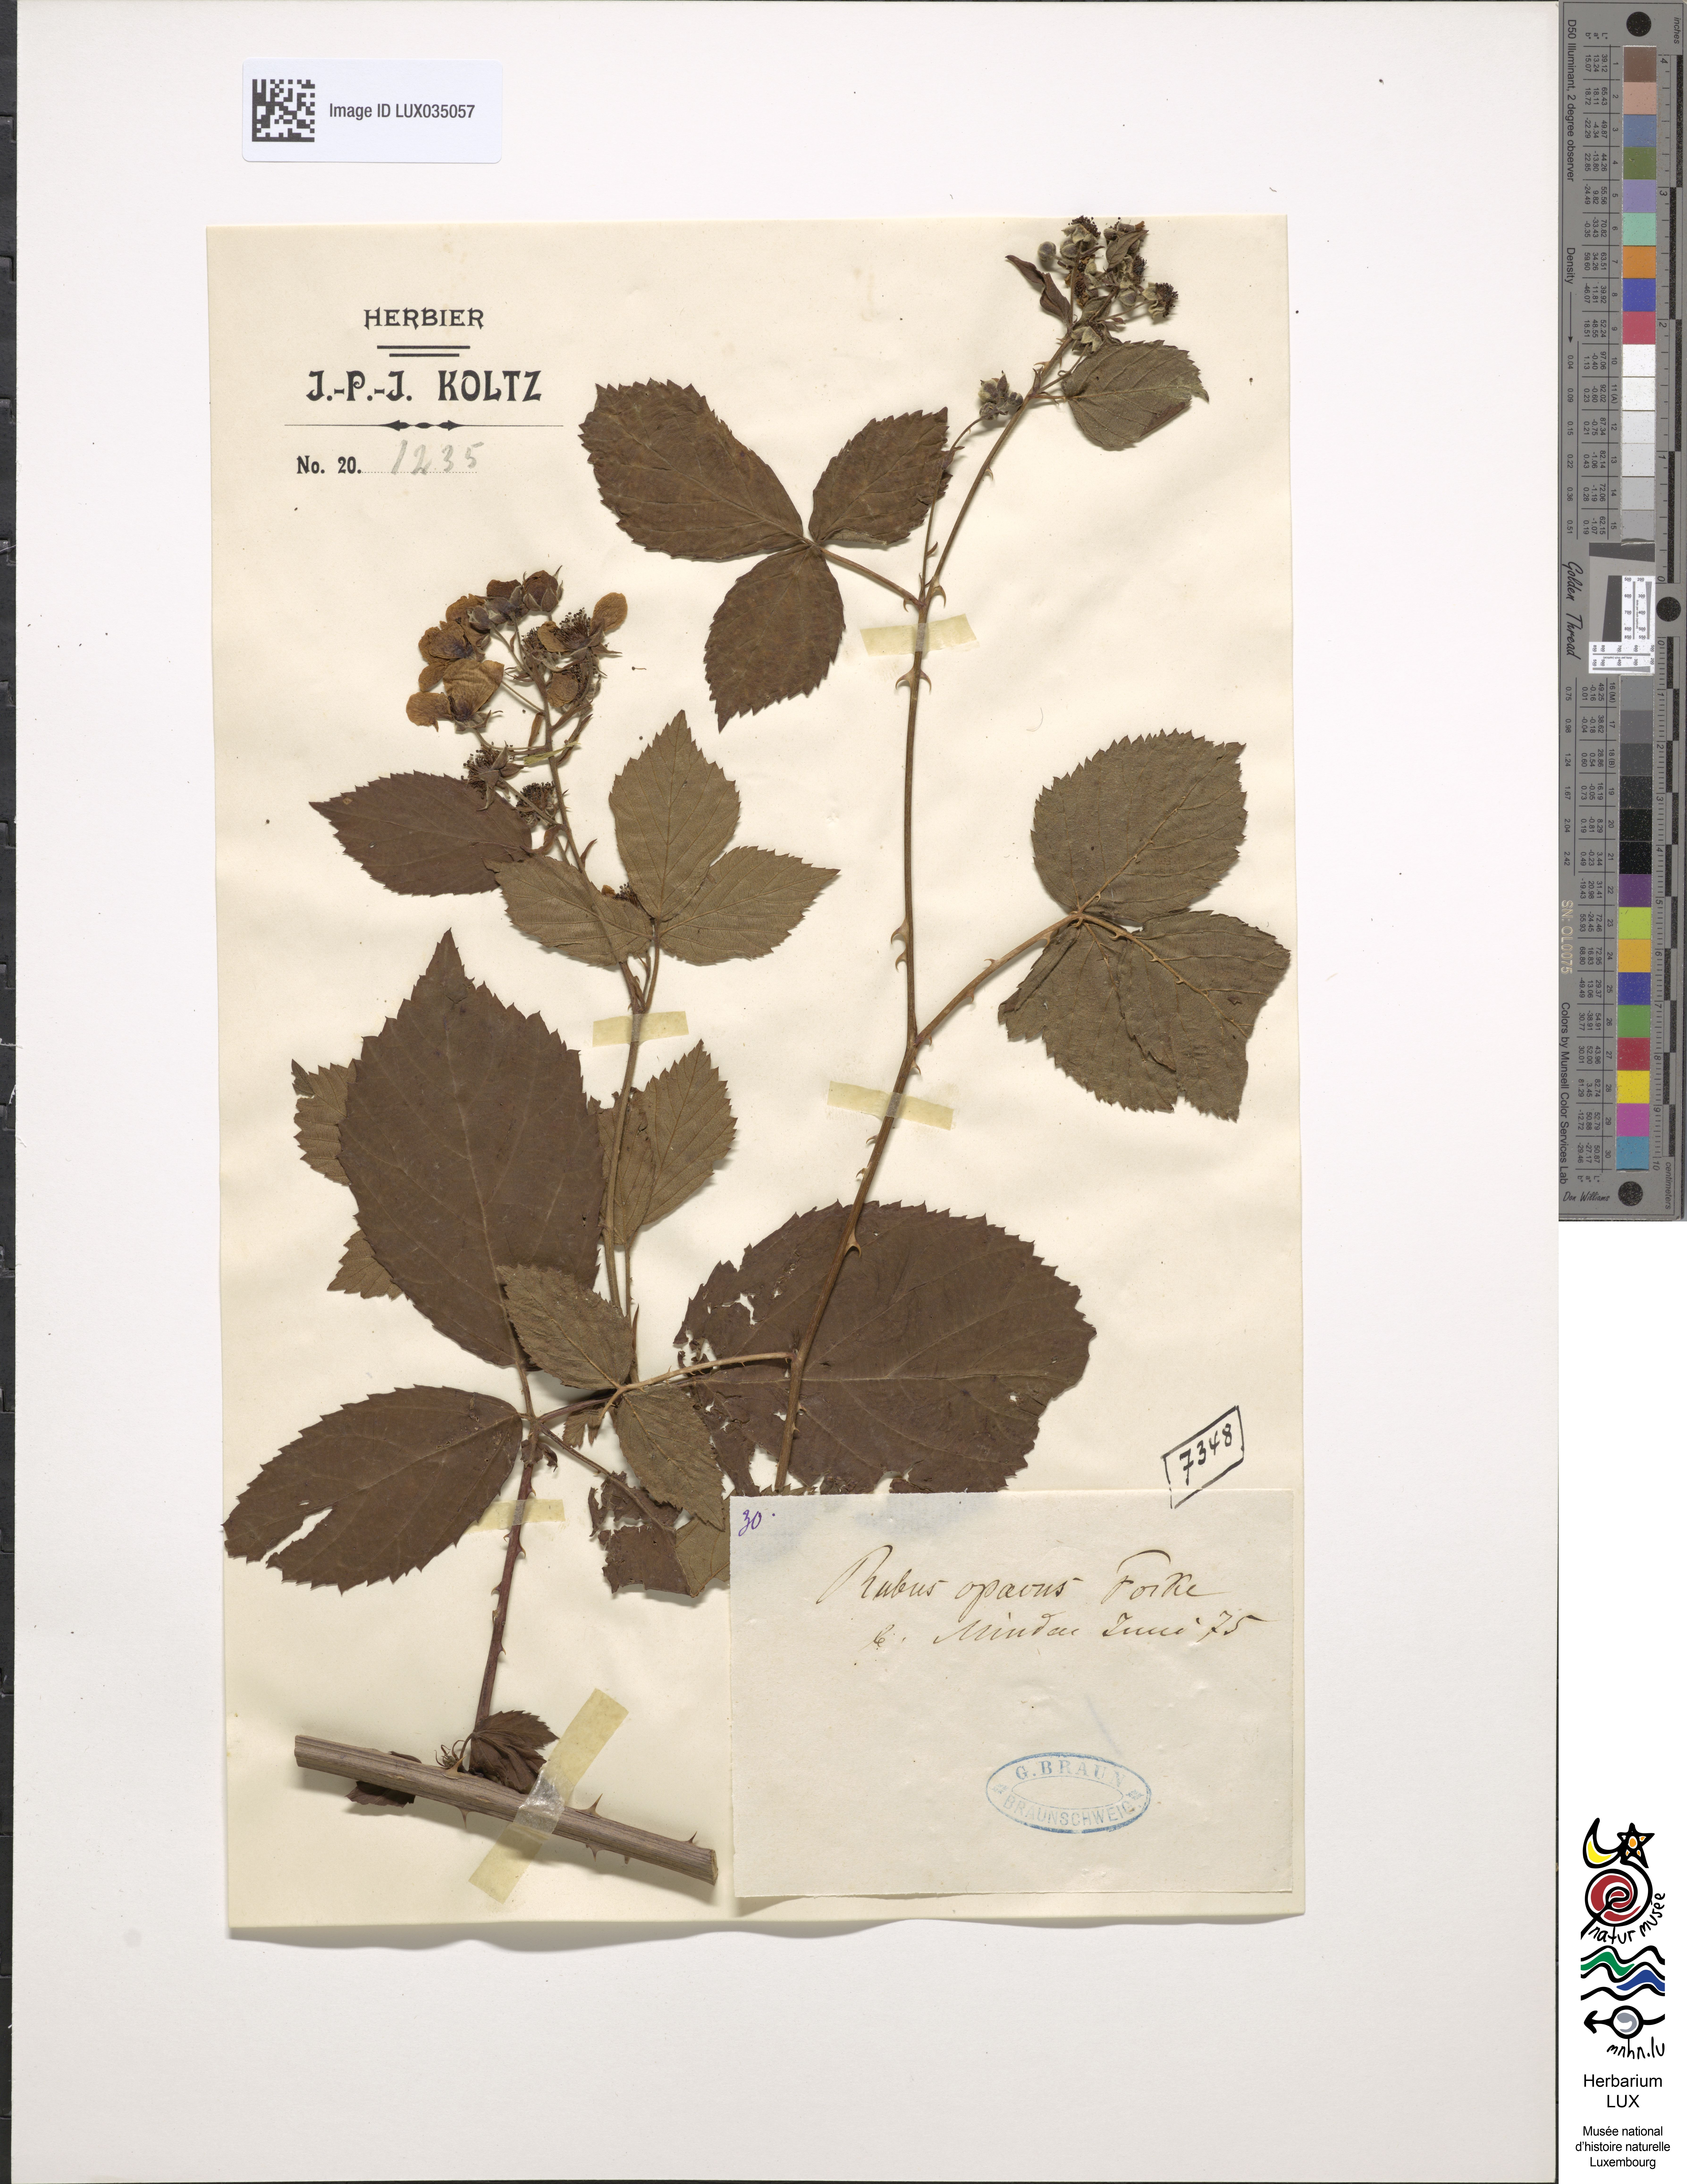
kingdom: Plantae
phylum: Tracheophyta
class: Magnoliopsida
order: Rosales
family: Rosaceae
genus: Rubus
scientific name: Rubus opacus
